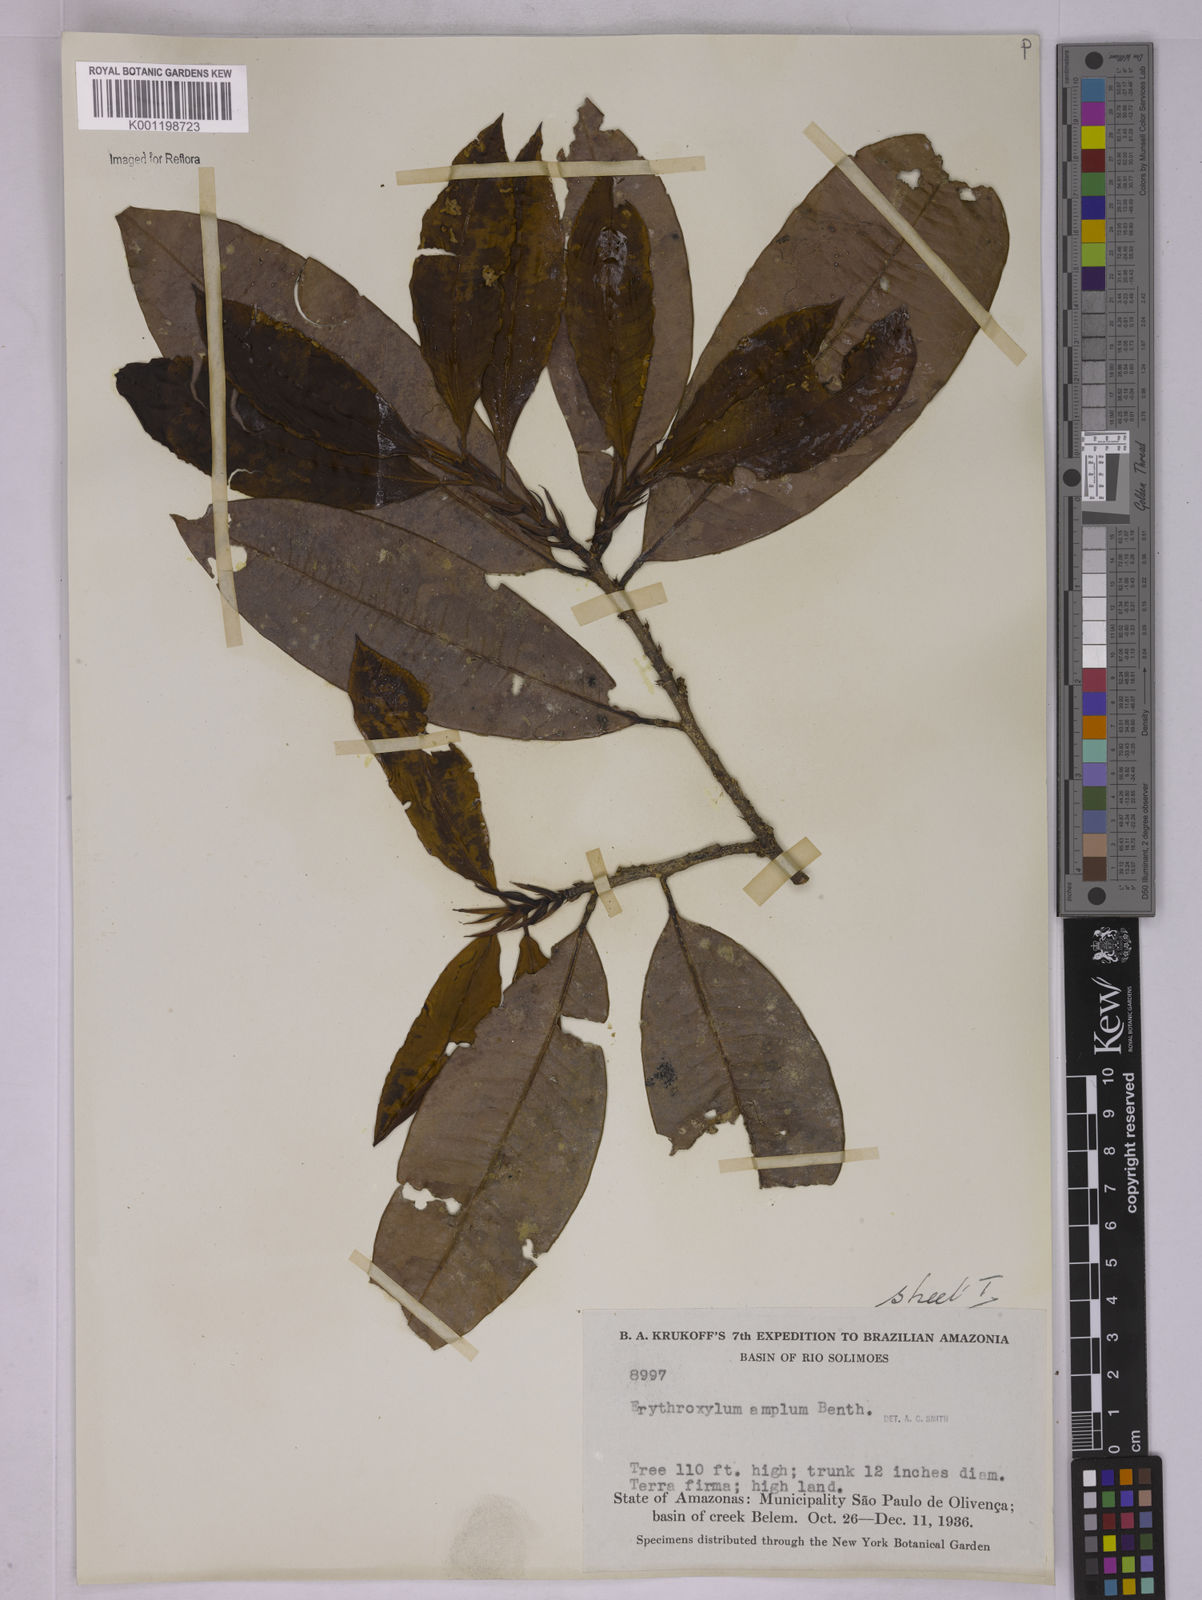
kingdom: Plantae
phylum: Tracheophyta
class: Magnoliopsida
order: Malpighiales
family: Erythroxylaceae
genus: Erythroxylum
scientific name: Erythroxylum amplum
